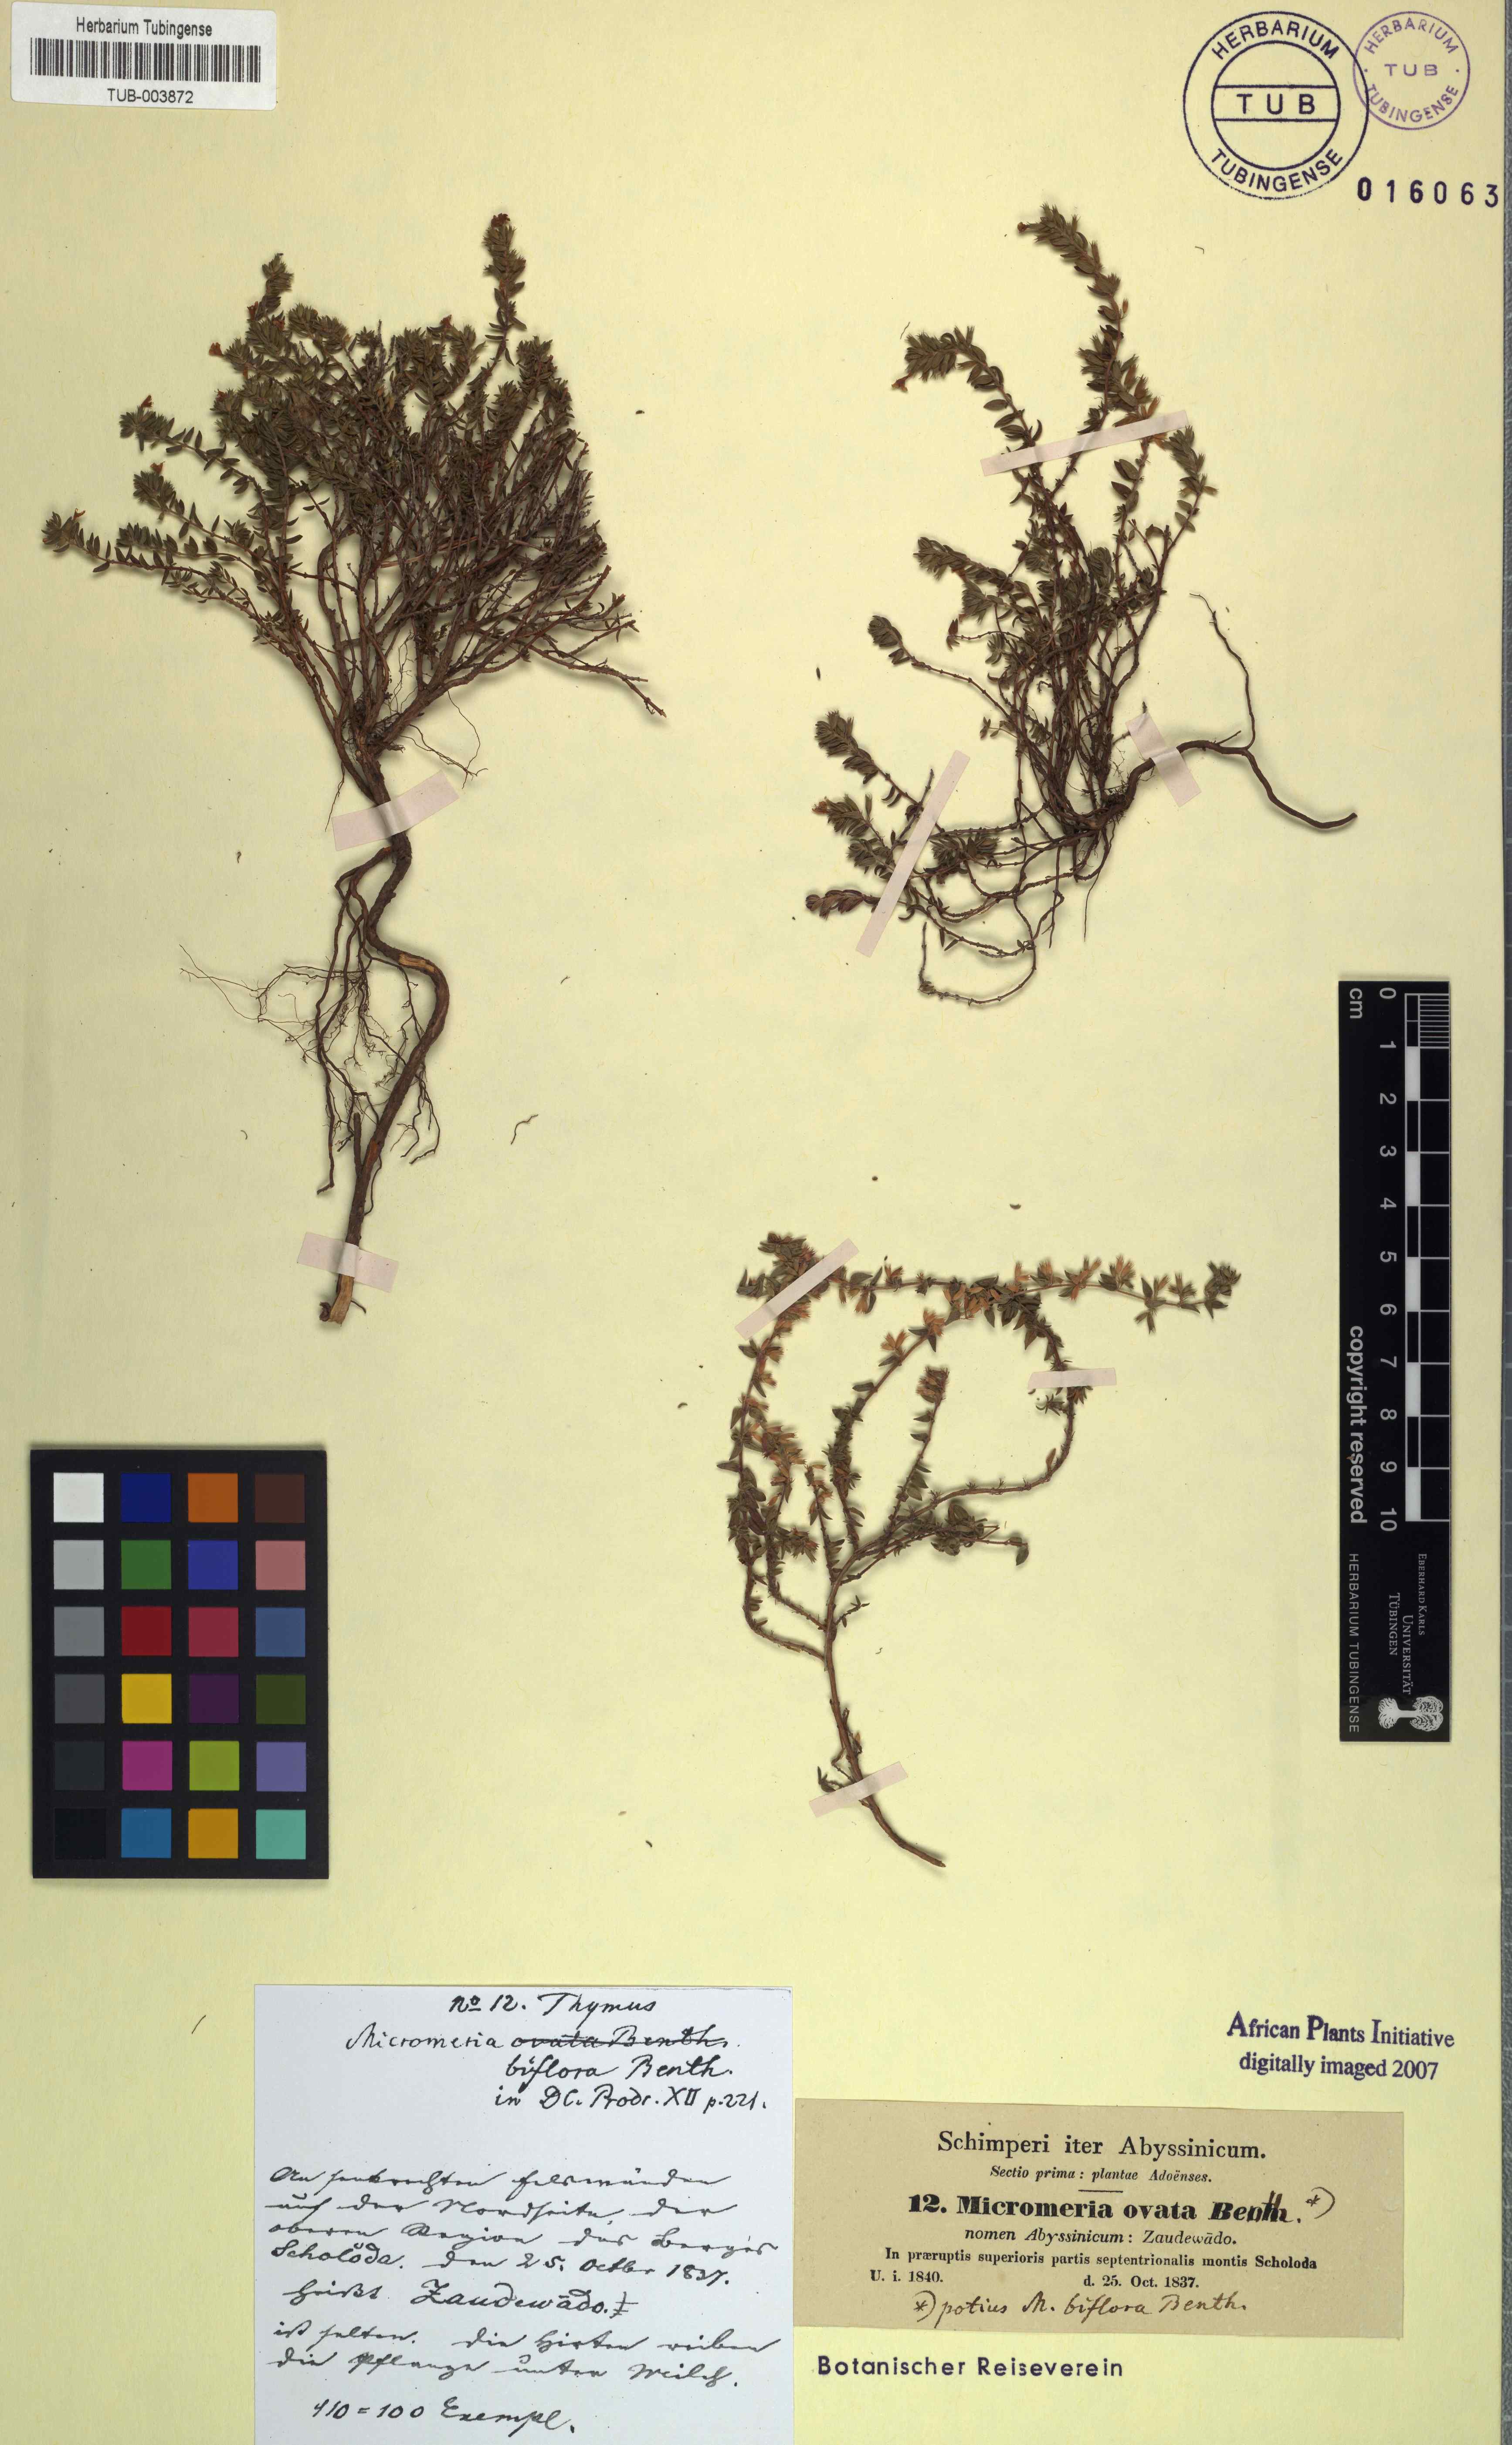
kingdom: Plantae
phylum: Tracheophyta
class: Magnoliopsida
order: Lamiales
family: Lamiaceae
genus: Micromeria
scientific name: Micromeria imbricata
